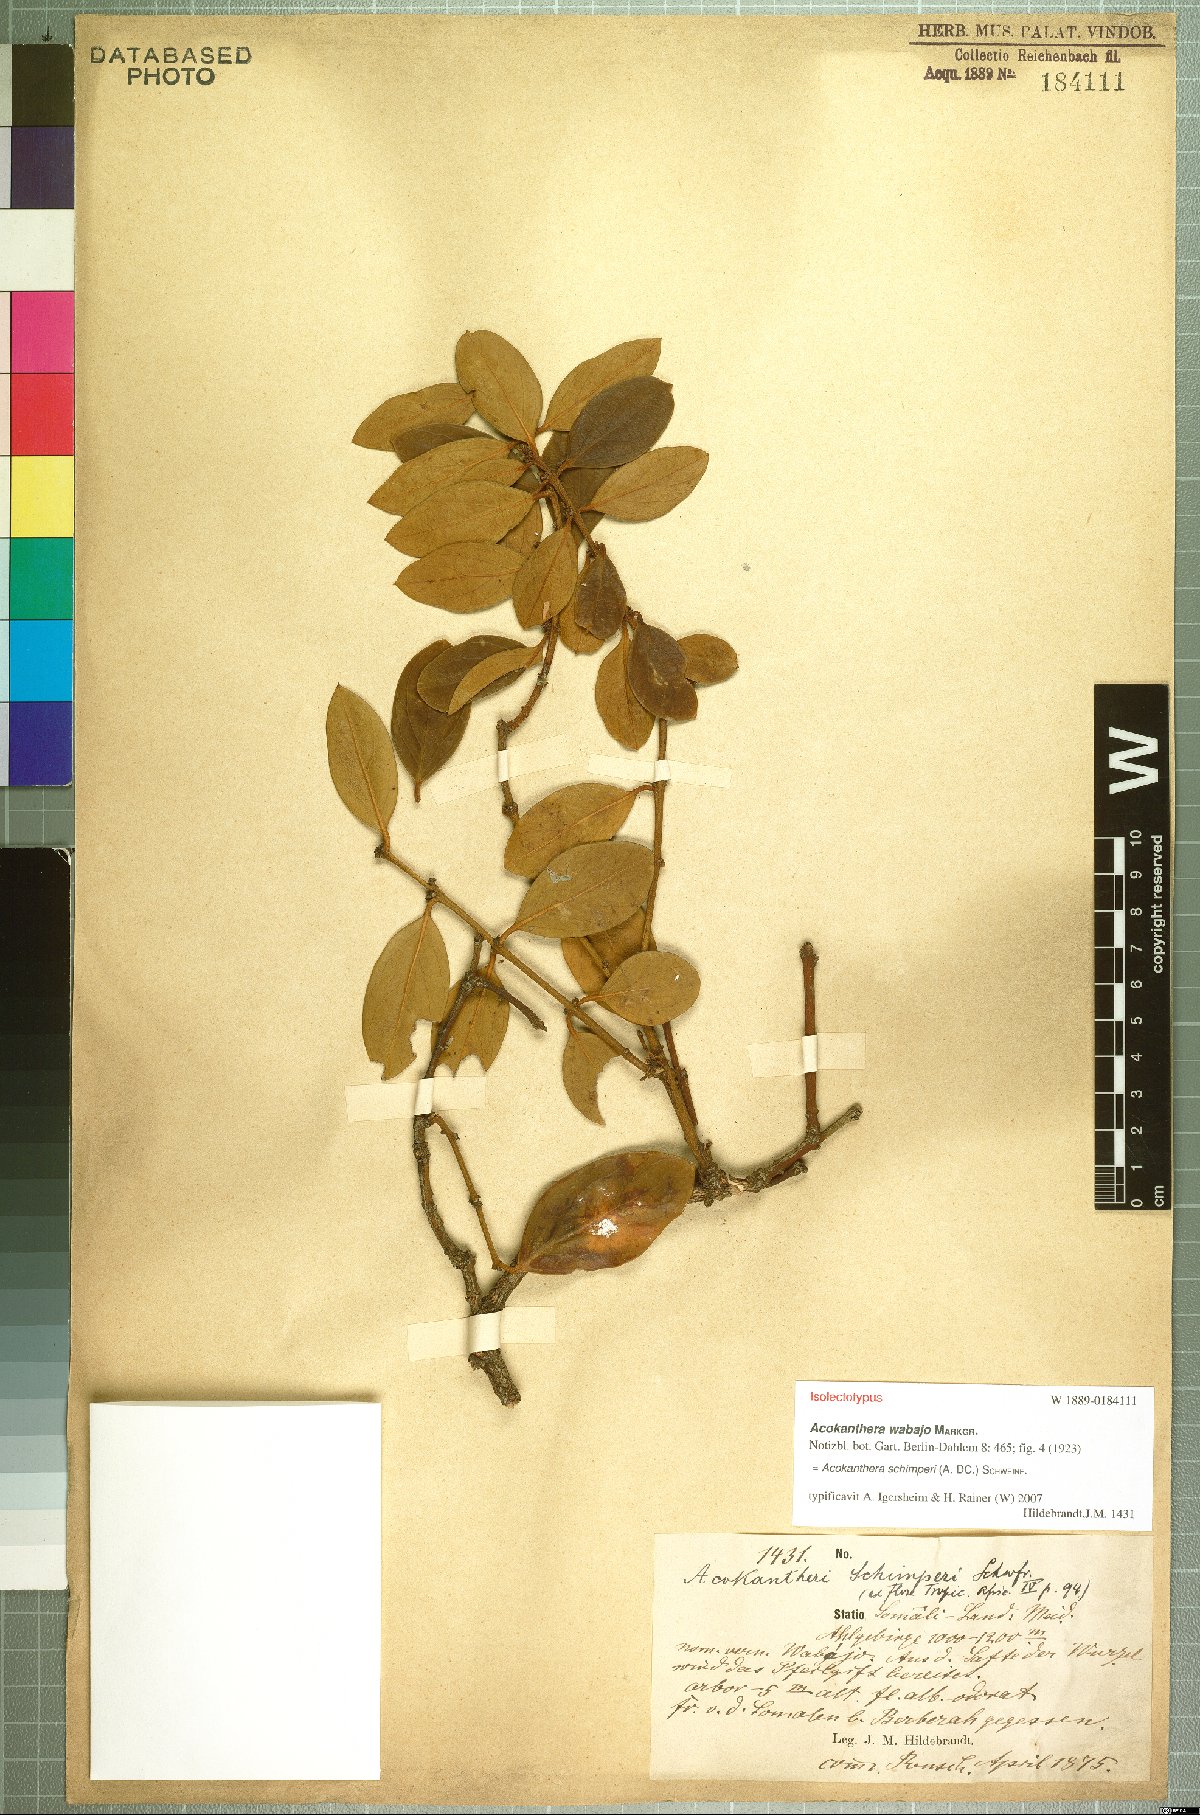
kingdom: Plantae
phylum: Tracheophyta
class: Magnoliopsida
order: Gentianales
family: Apocynaceae
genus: Acokanthera
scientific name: Acokanthera schimperi
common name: Arrow-poison-tree
